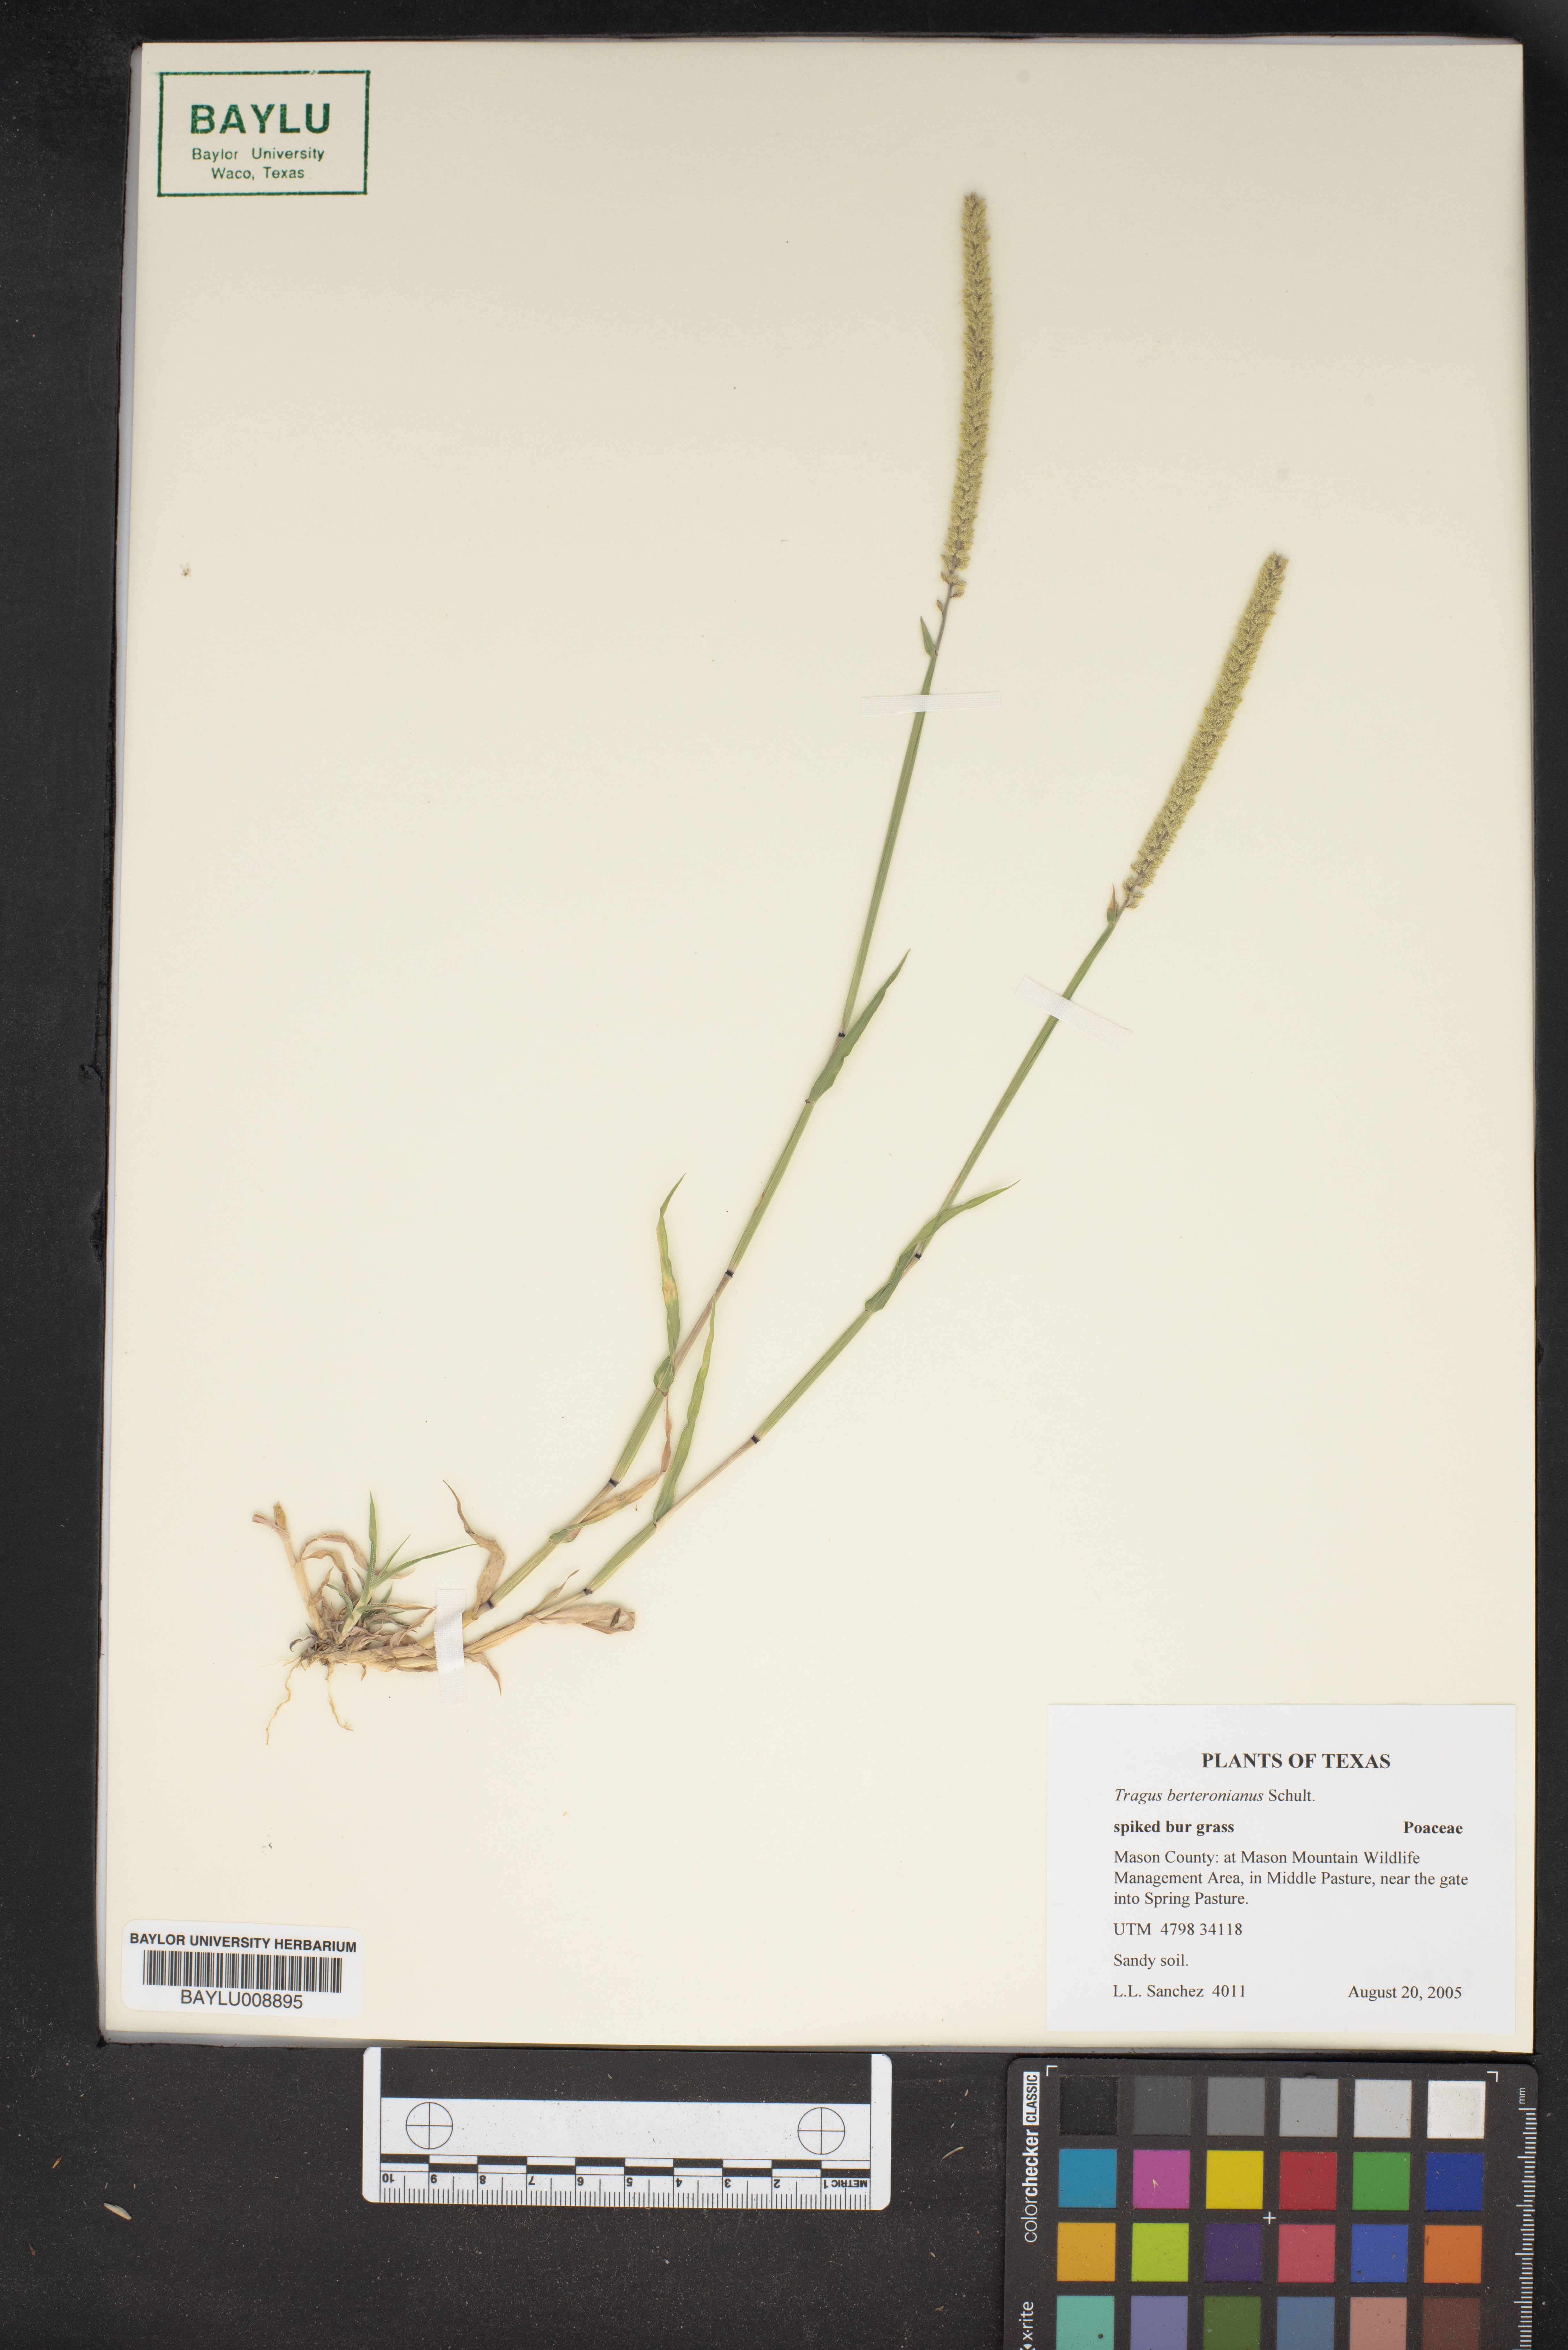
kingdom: Plantae
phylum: Tracheophyta
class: Liliopsida
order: Poales
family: Poaceae
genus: Tragus
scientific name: Tragus berteronianus
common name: African bur-grass
